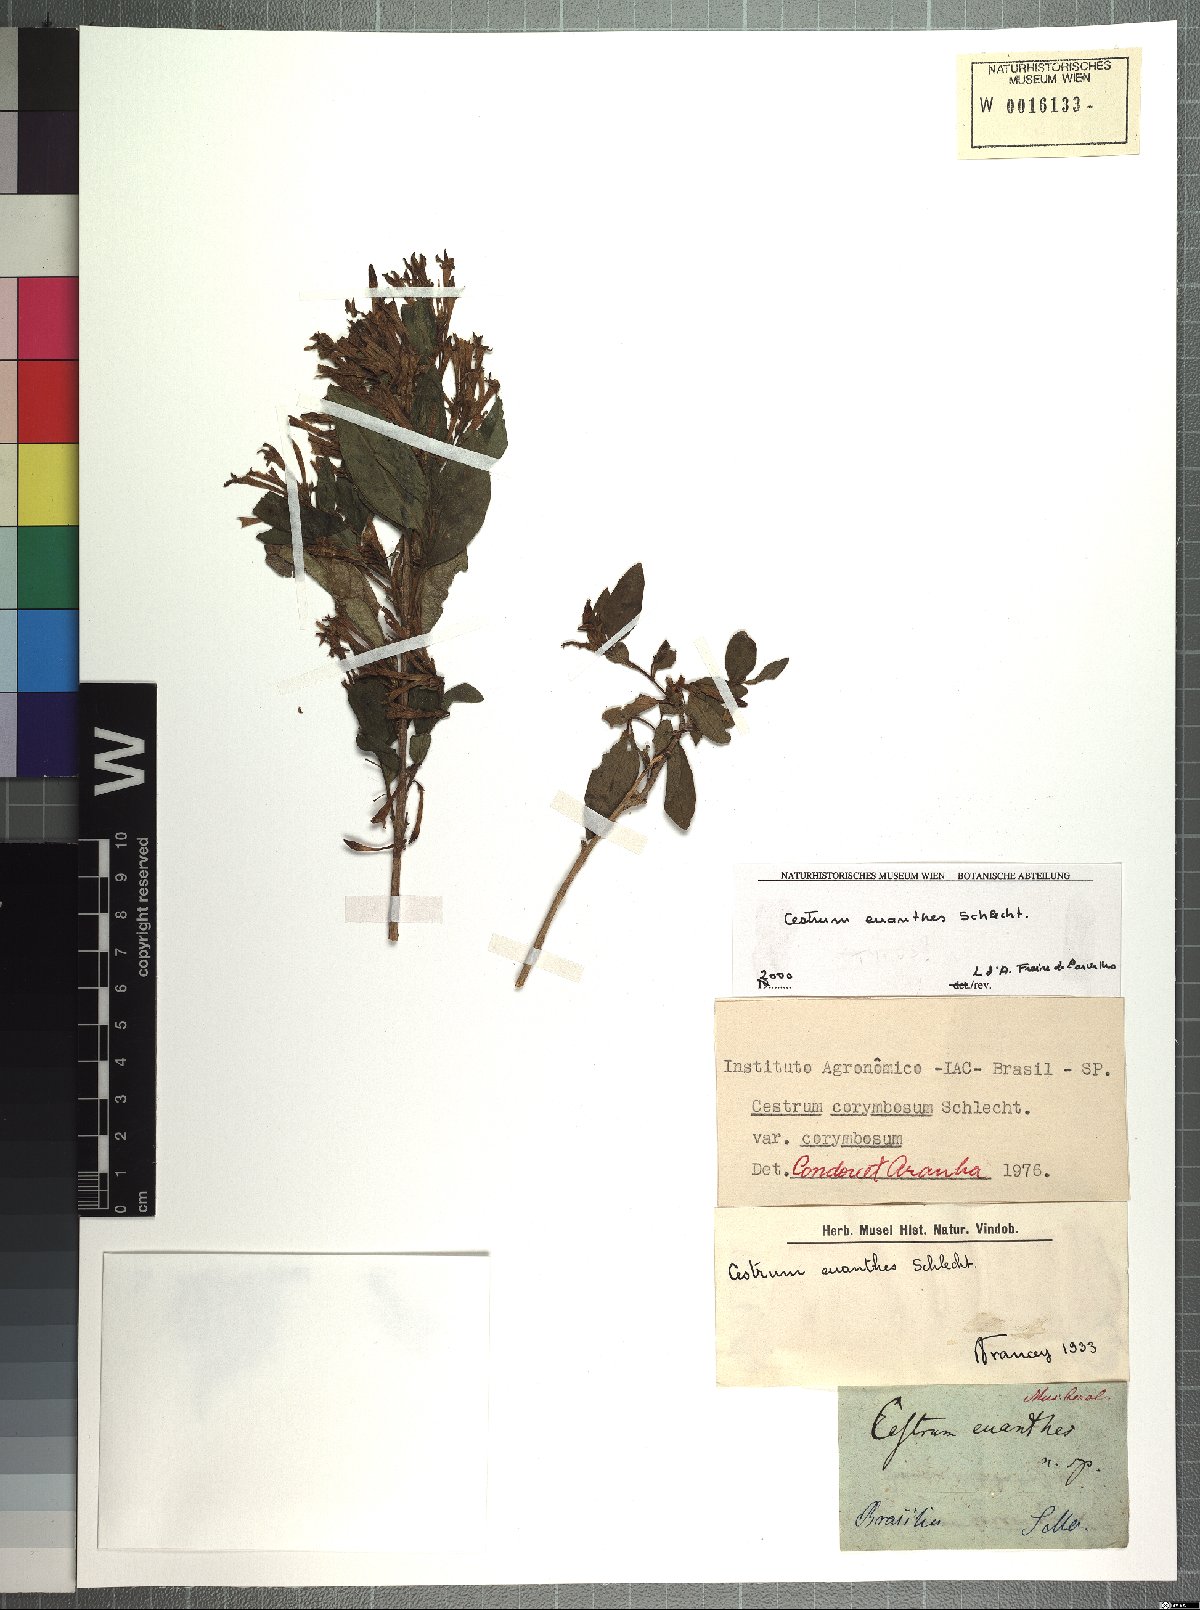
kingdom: Plantae
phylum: Tracheophyta
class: Magnoliopsida
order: Solanales
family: Solanaceae
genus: Cestrum
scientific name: Cestrum euanthes
